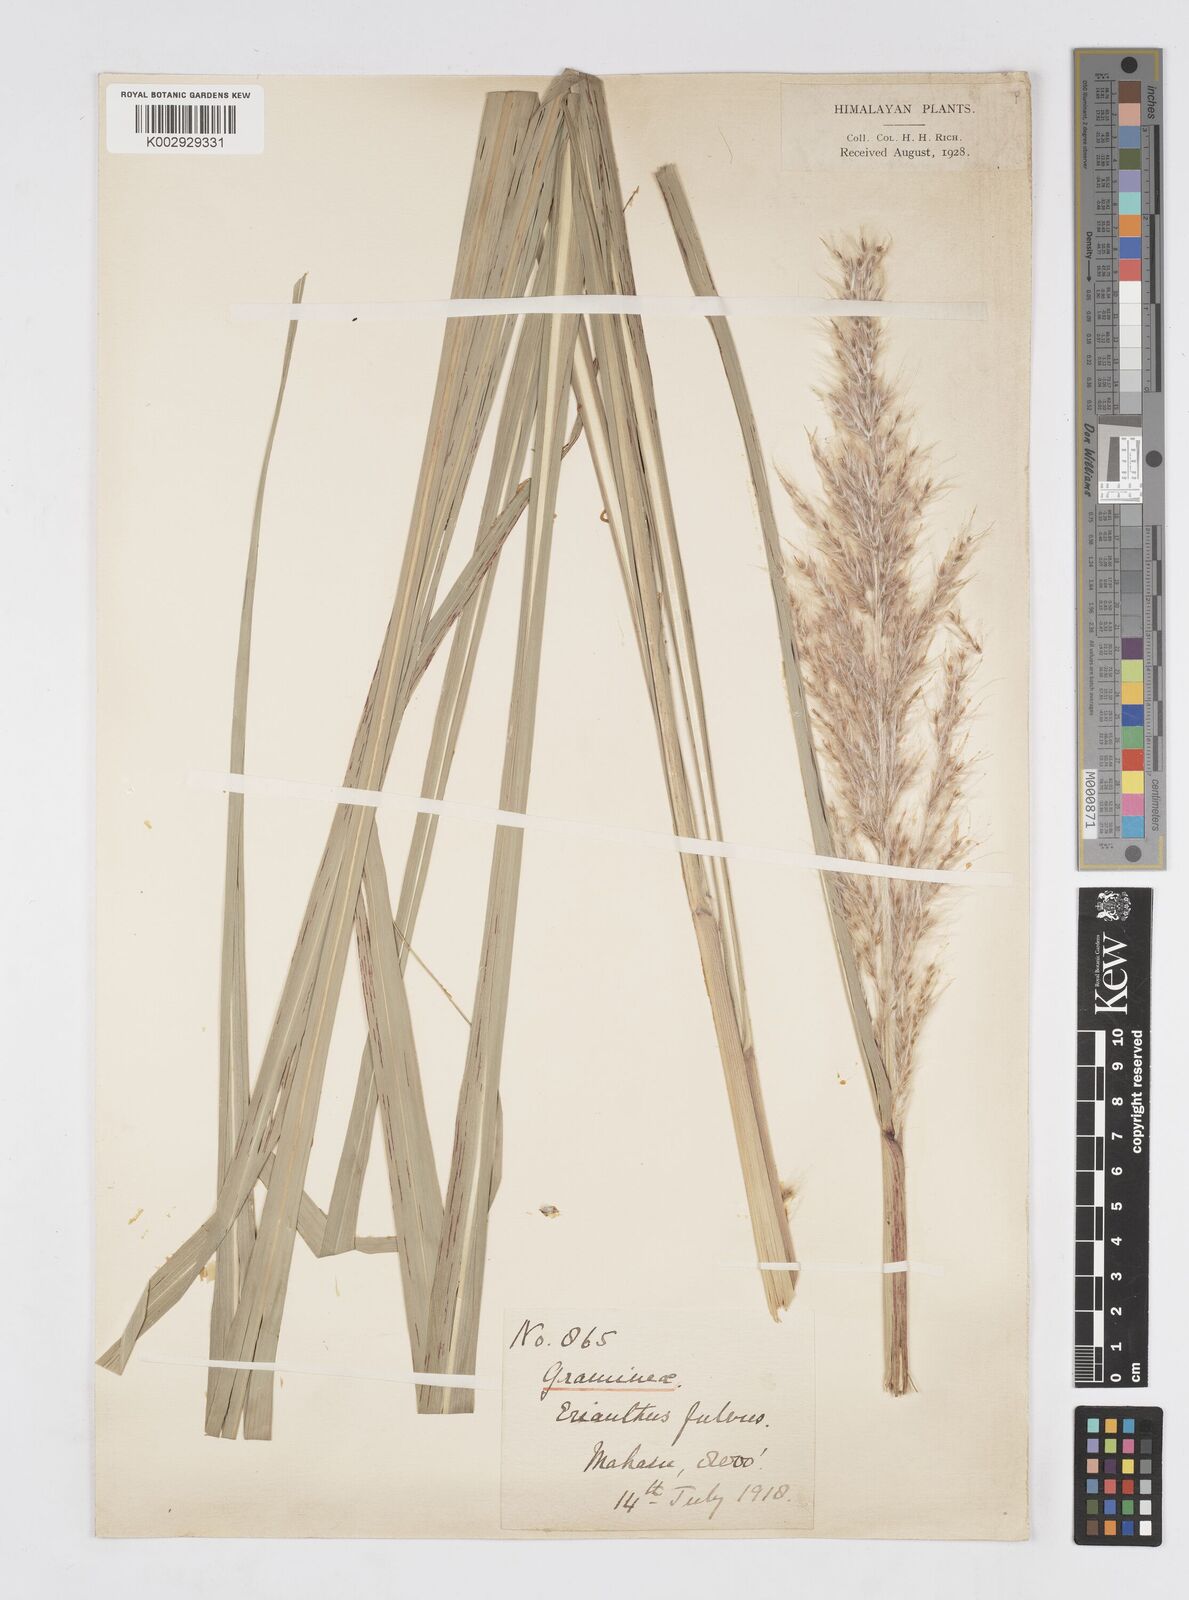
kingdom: Plantae
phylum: Tracheophyta
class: Liliopsida
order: Poales
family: Poaceae
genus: Tripidium
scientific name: Tripidium rufipilum
